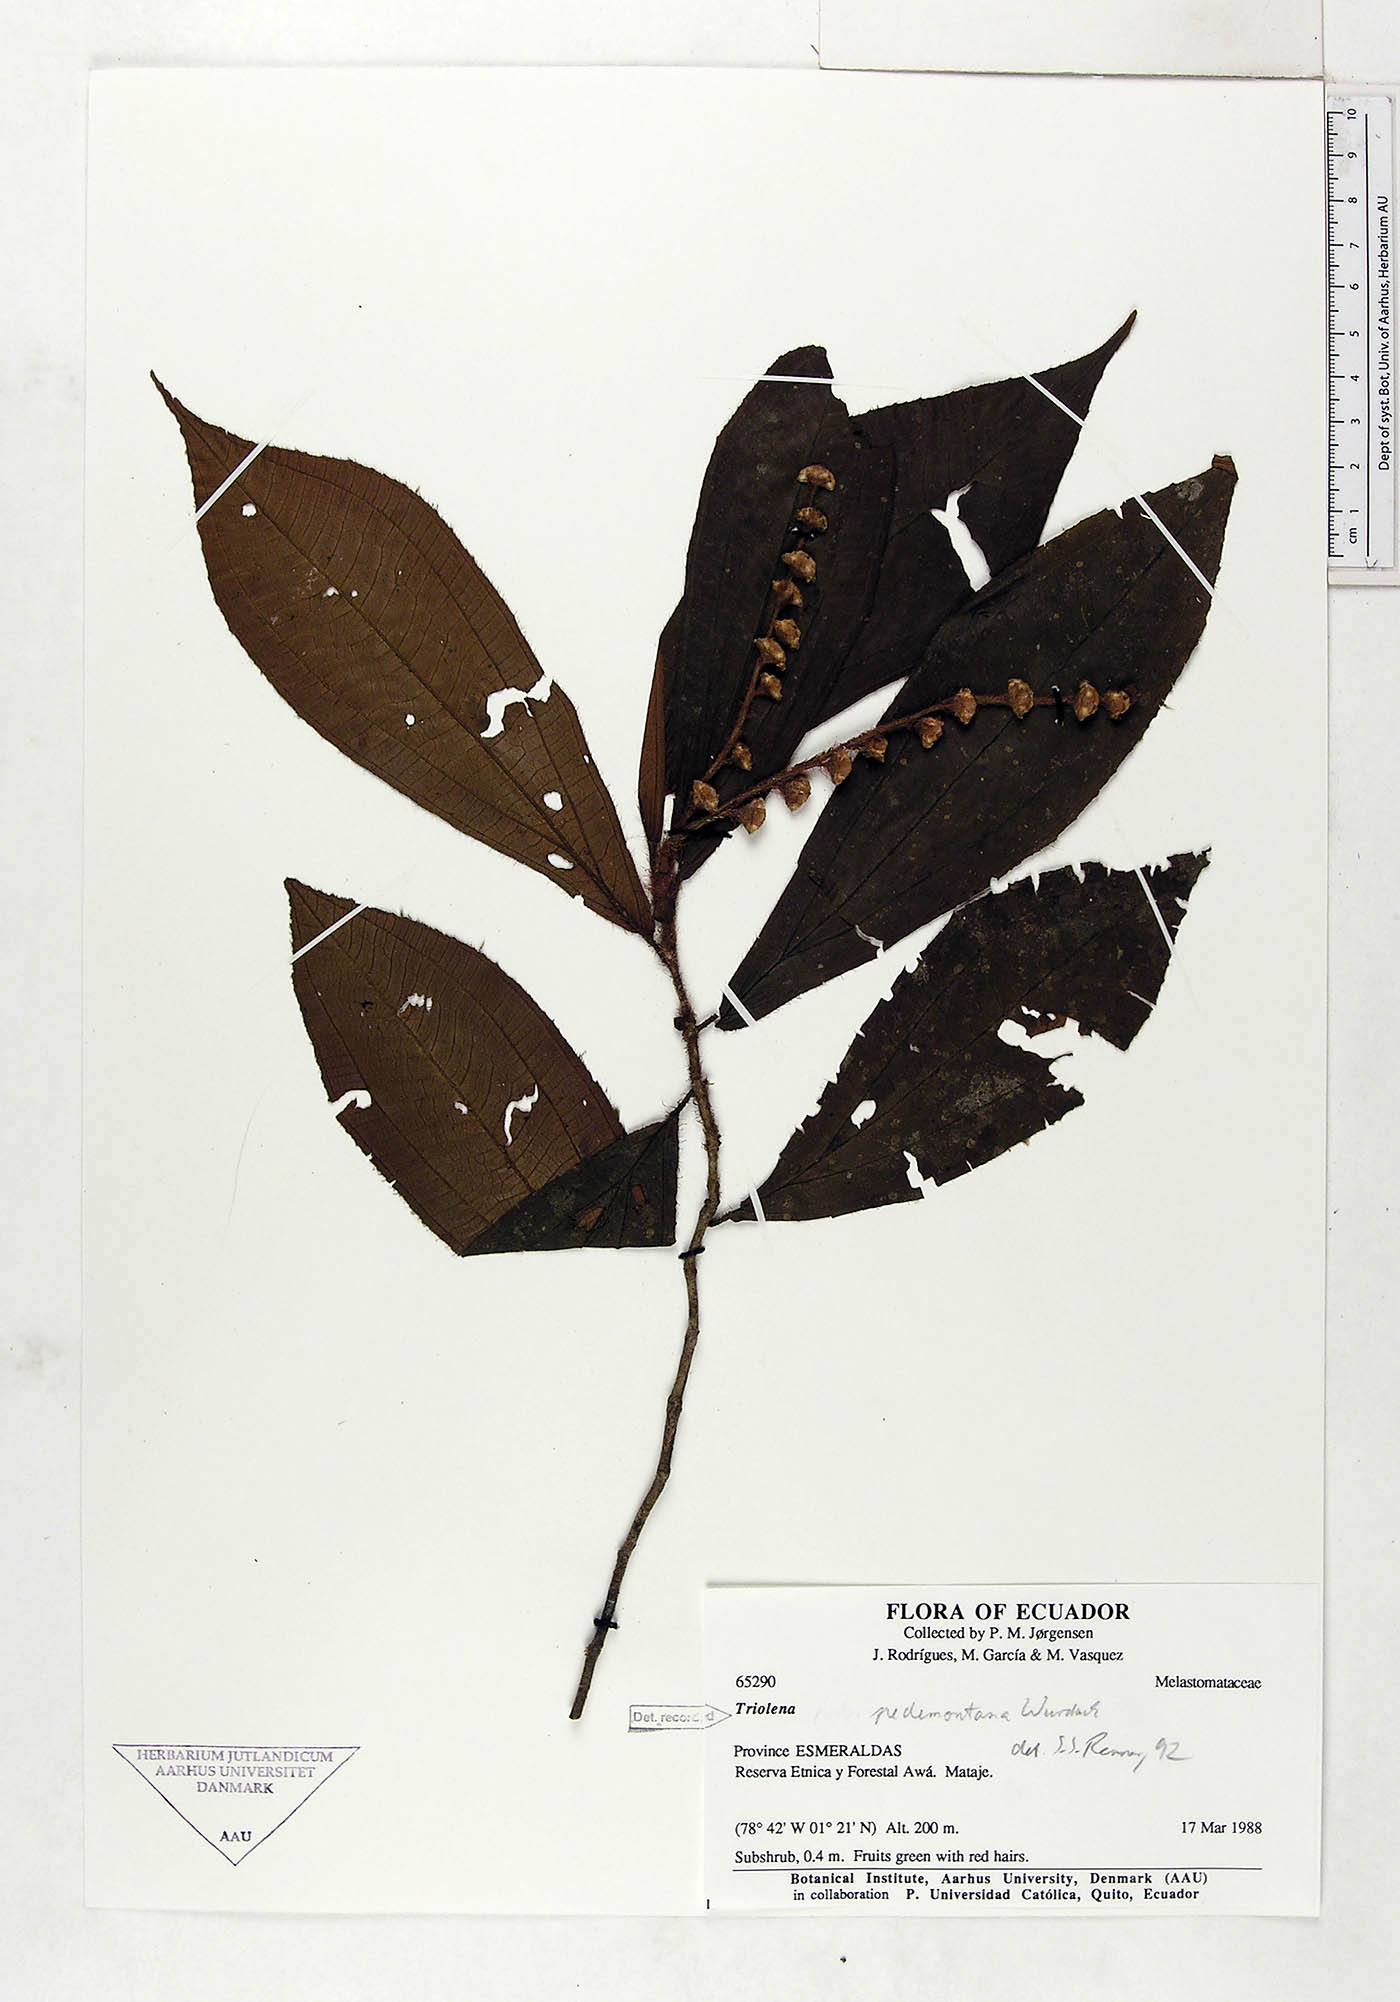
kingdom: Plantae
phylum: Tracheophyta
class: Magnoliopsida
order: Myrtales
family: Melastomataceae
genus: Triolena
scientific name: Triolena pedemontana
